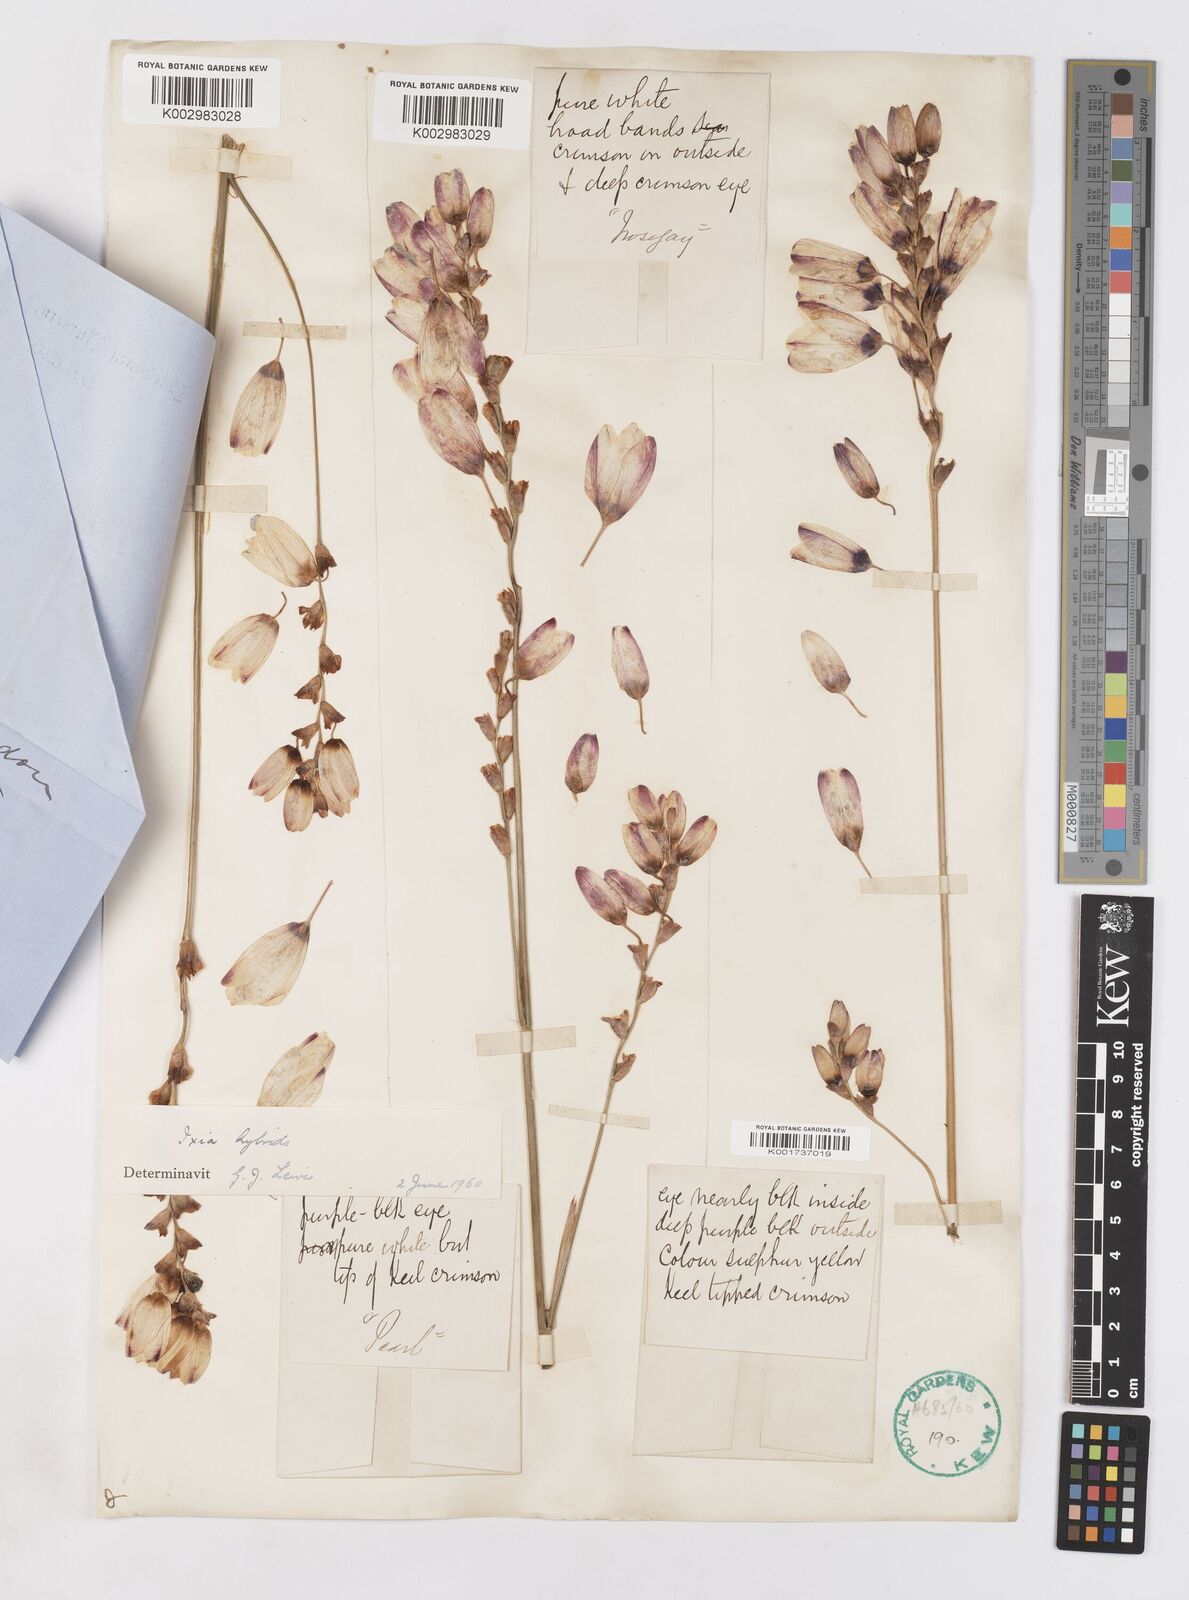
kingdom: Plantae
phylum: Tracheophyta
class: Liliopsida
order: Asparagales
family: Iridaceae
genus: Ixia
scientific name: Ixia polystachya
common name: White-and-yellow-flower cornlily
